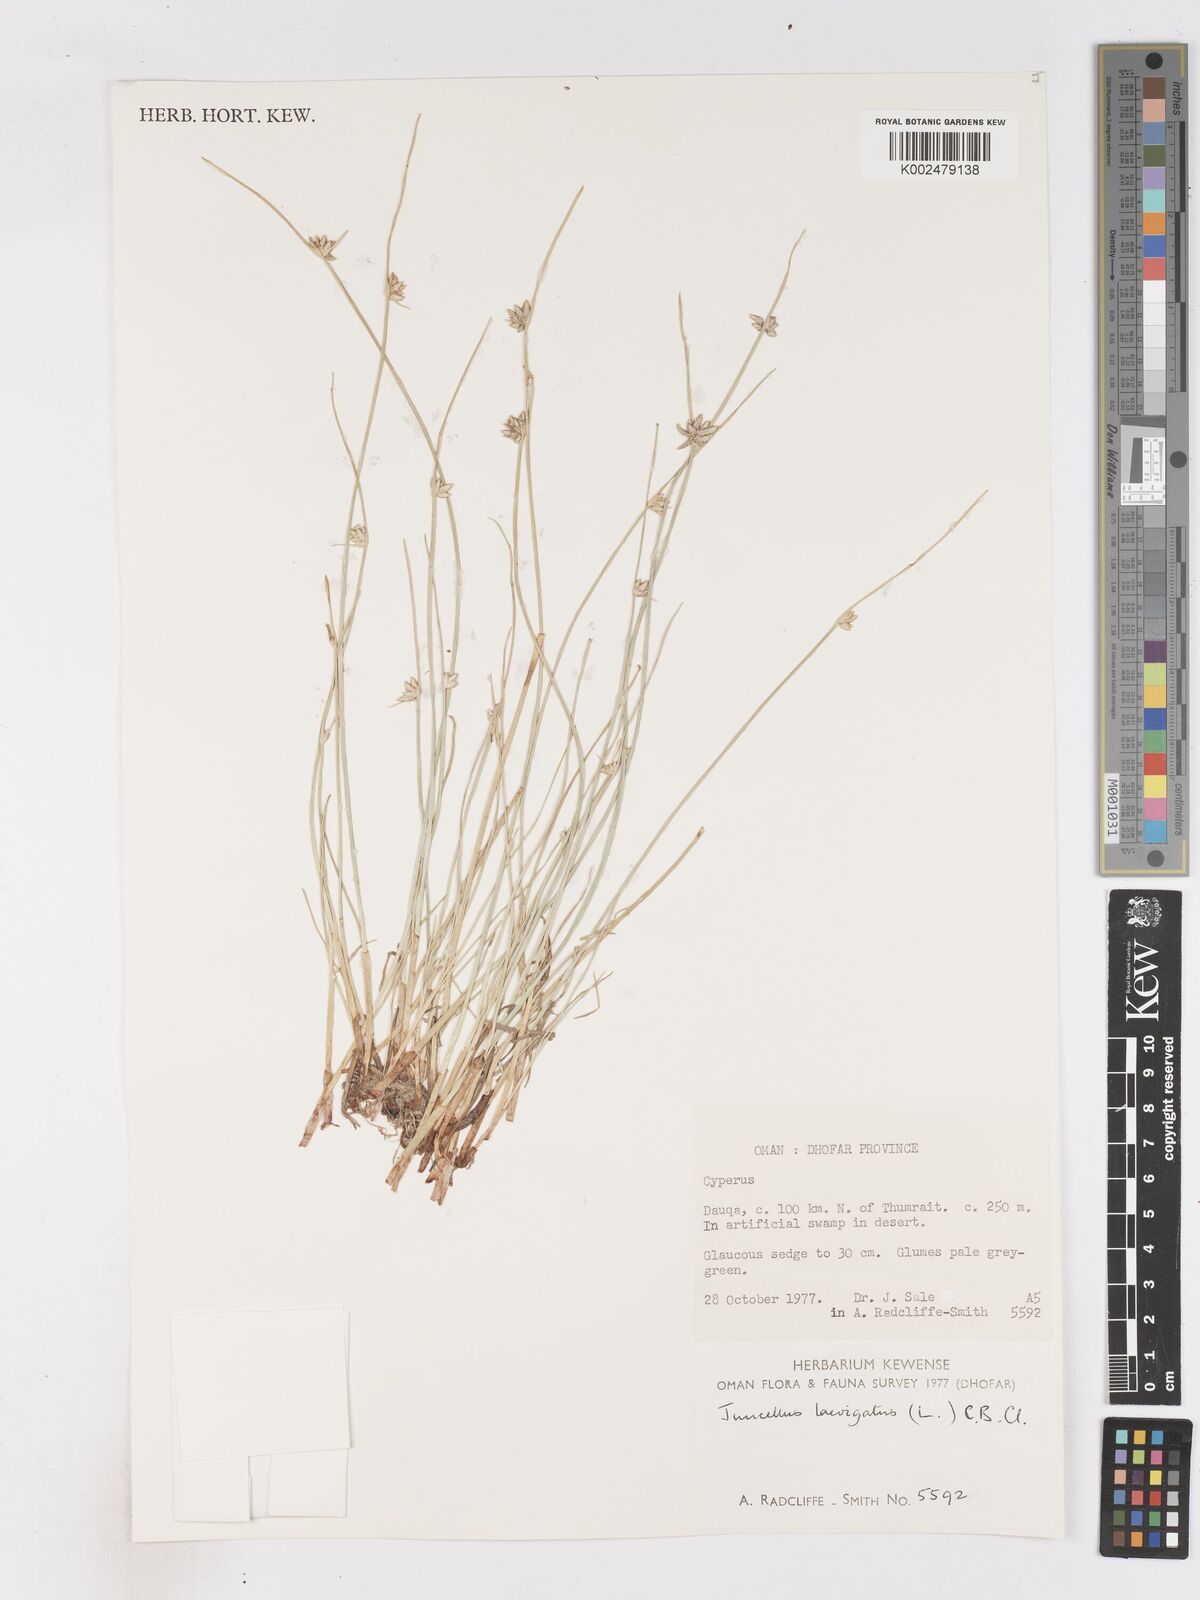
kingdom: Plantae
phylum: Tracheophyta
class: Liliopsida
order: Poales
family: Cyperaceae
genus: Cyperus
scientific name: Cyperus laevigatus
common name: Smooth flat sedge
